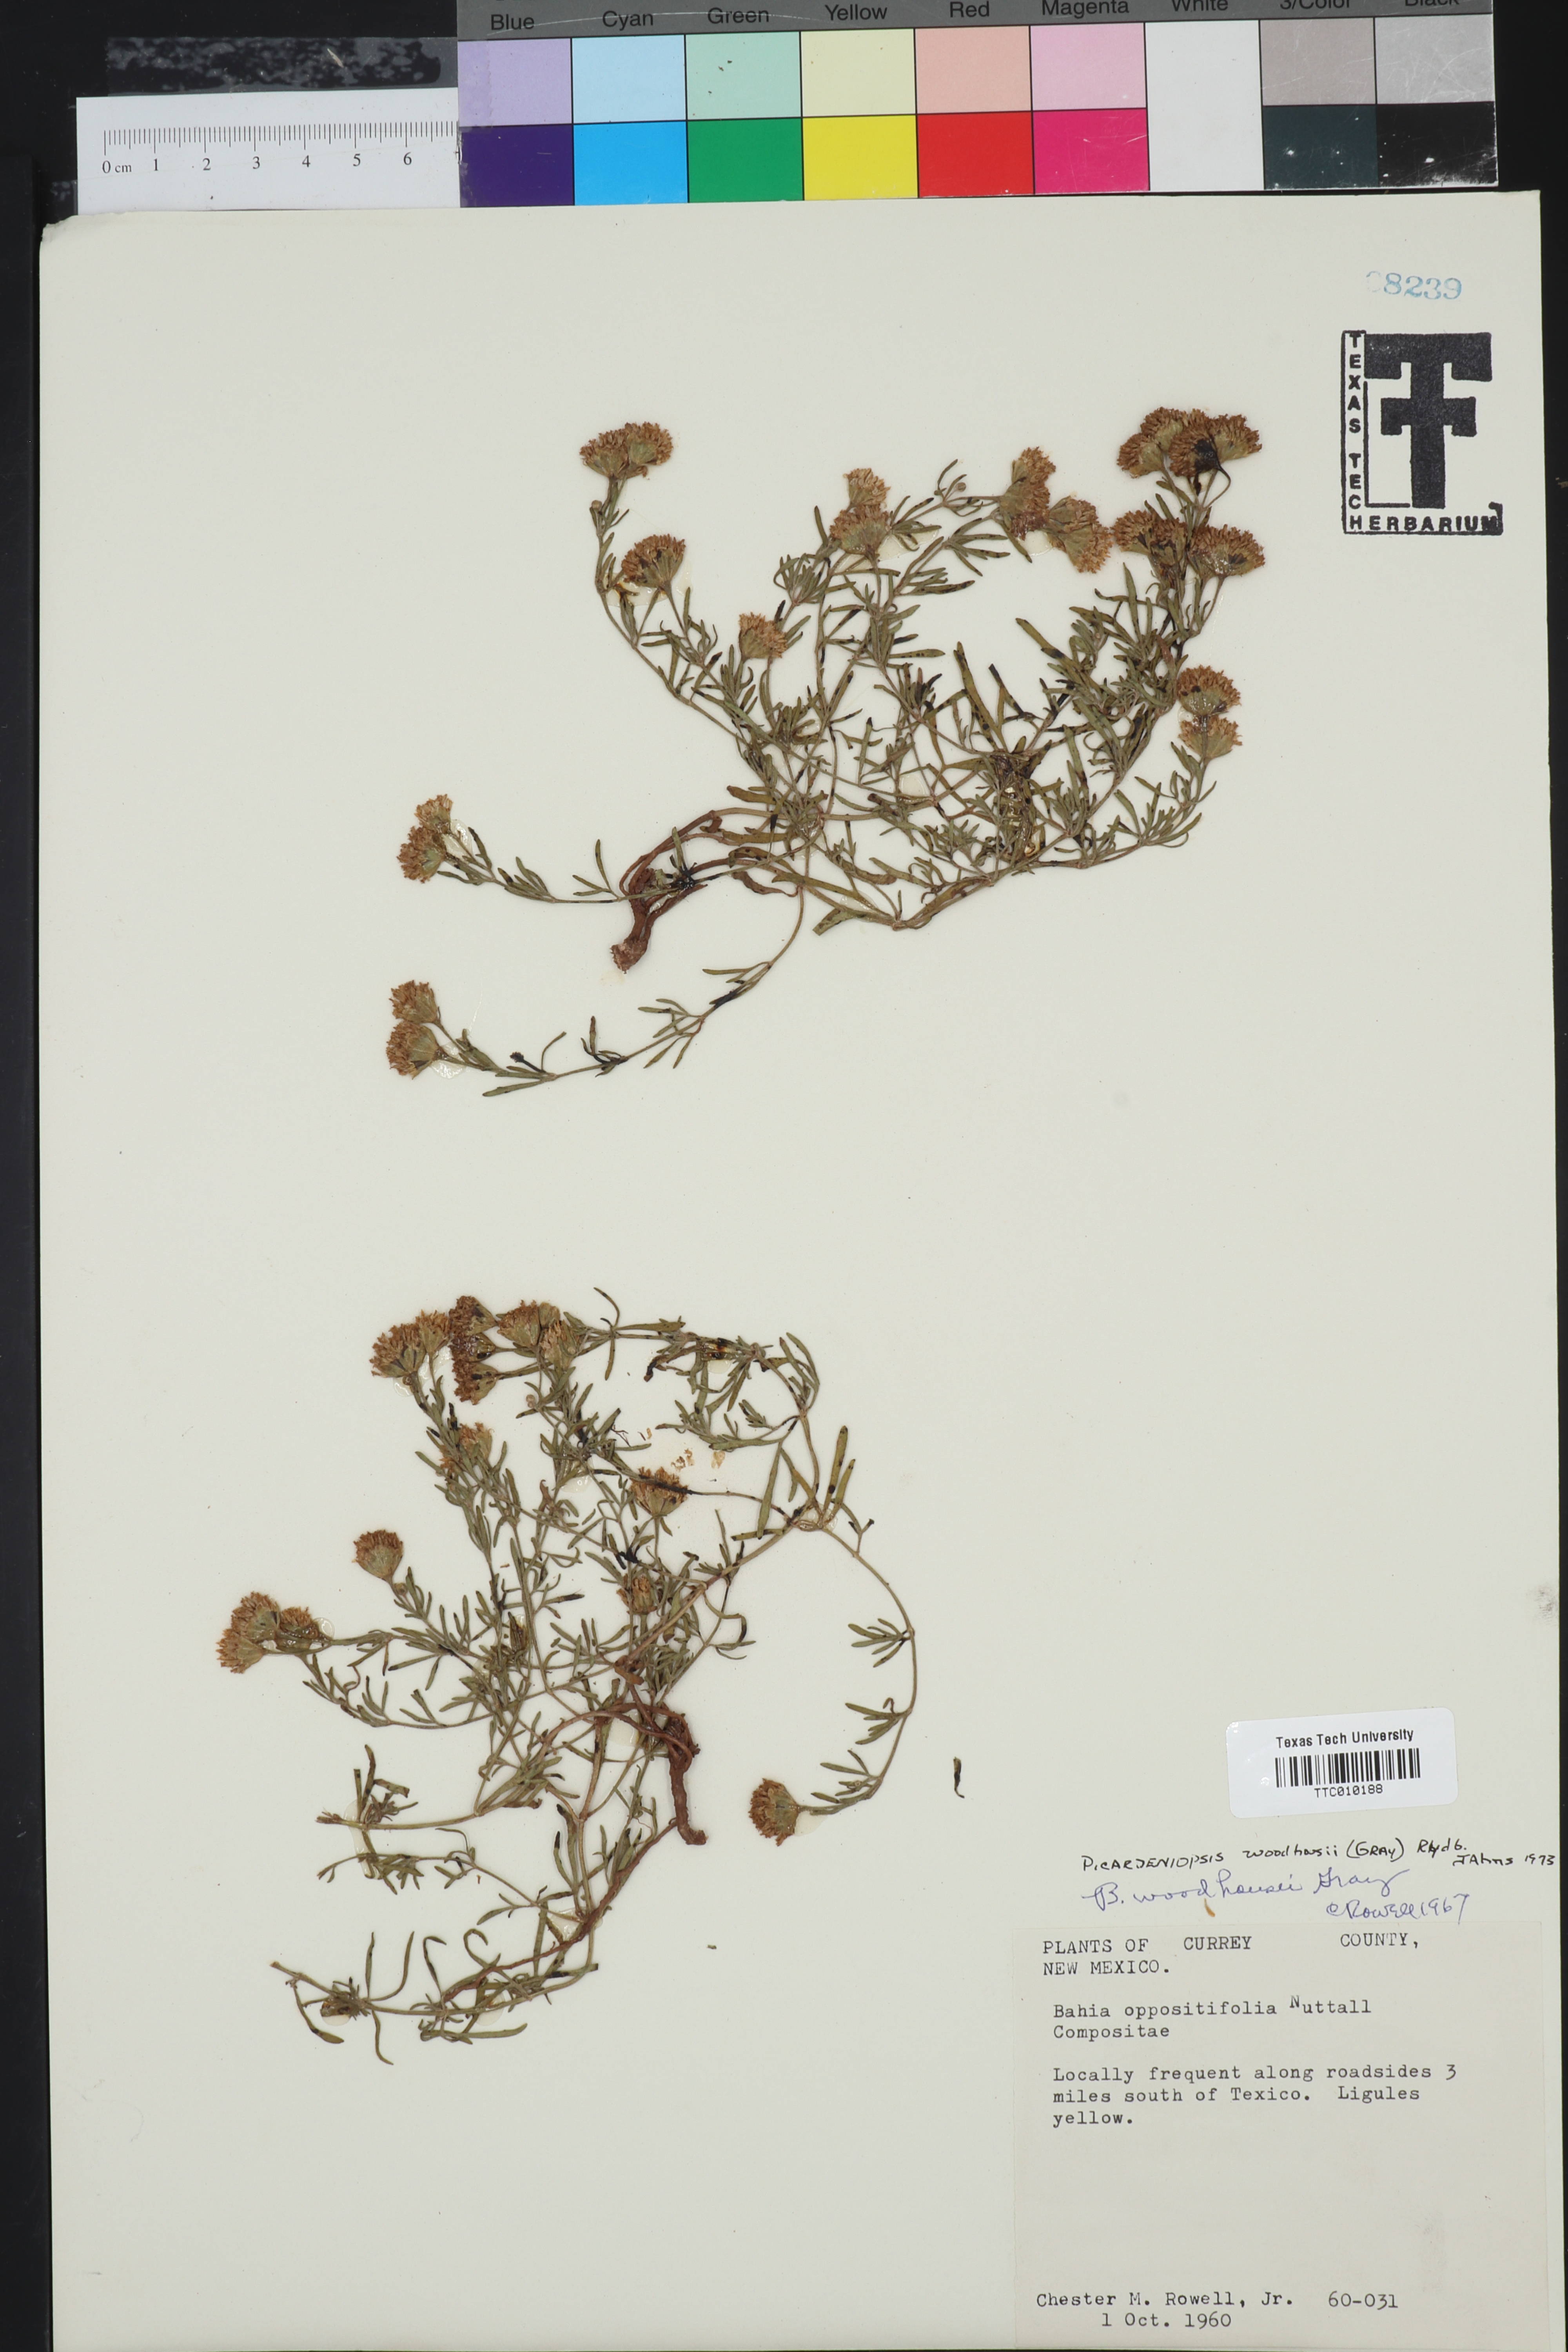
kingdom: Plantae
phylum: Tracheophyta
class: Magnoliopsida
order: Asterales
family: Asteraceae
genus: Picradeniopsis
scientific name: Picradeniopsis woodhousei
